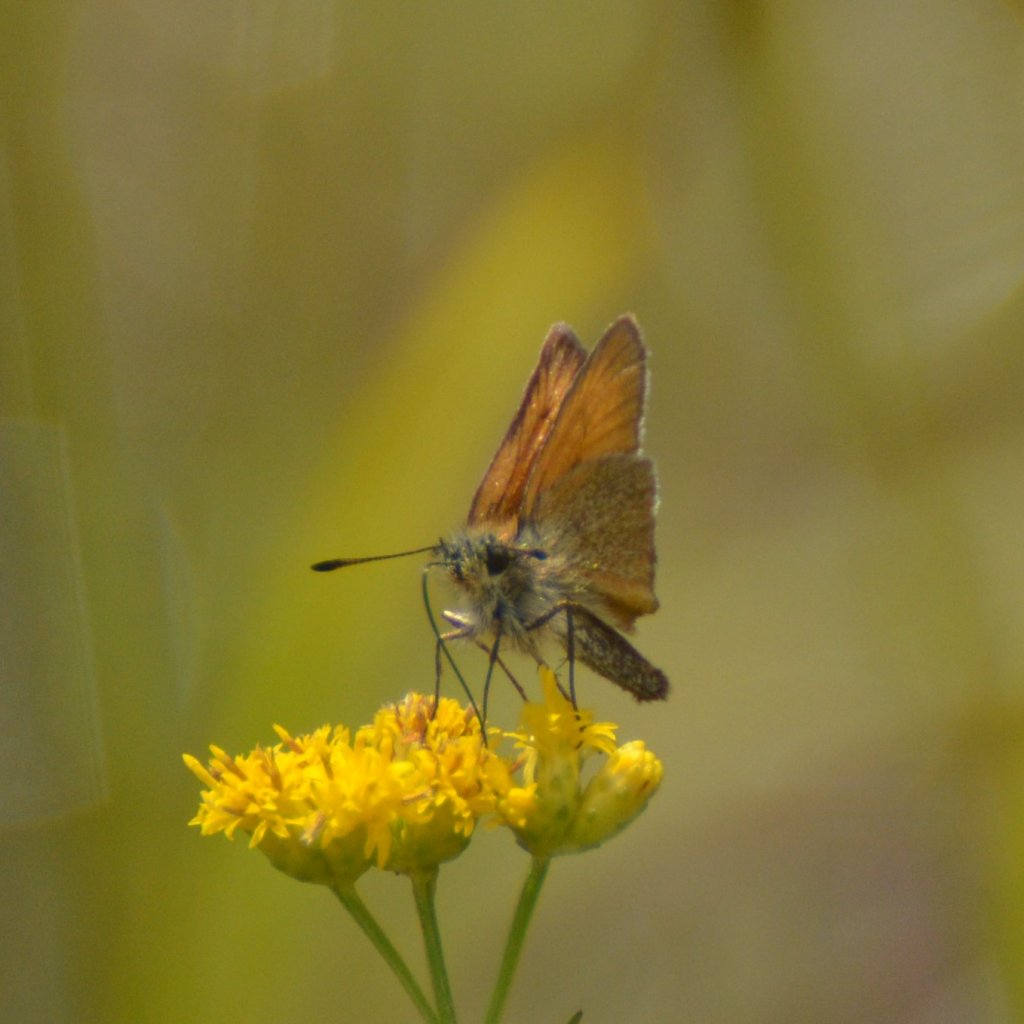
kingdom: Animalia
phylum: Arthropoda
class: Insecta
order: Lepidoptera
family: Hesperiidae
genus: Thymelicus
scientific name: Thymelicus lineola
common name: European Skipper
